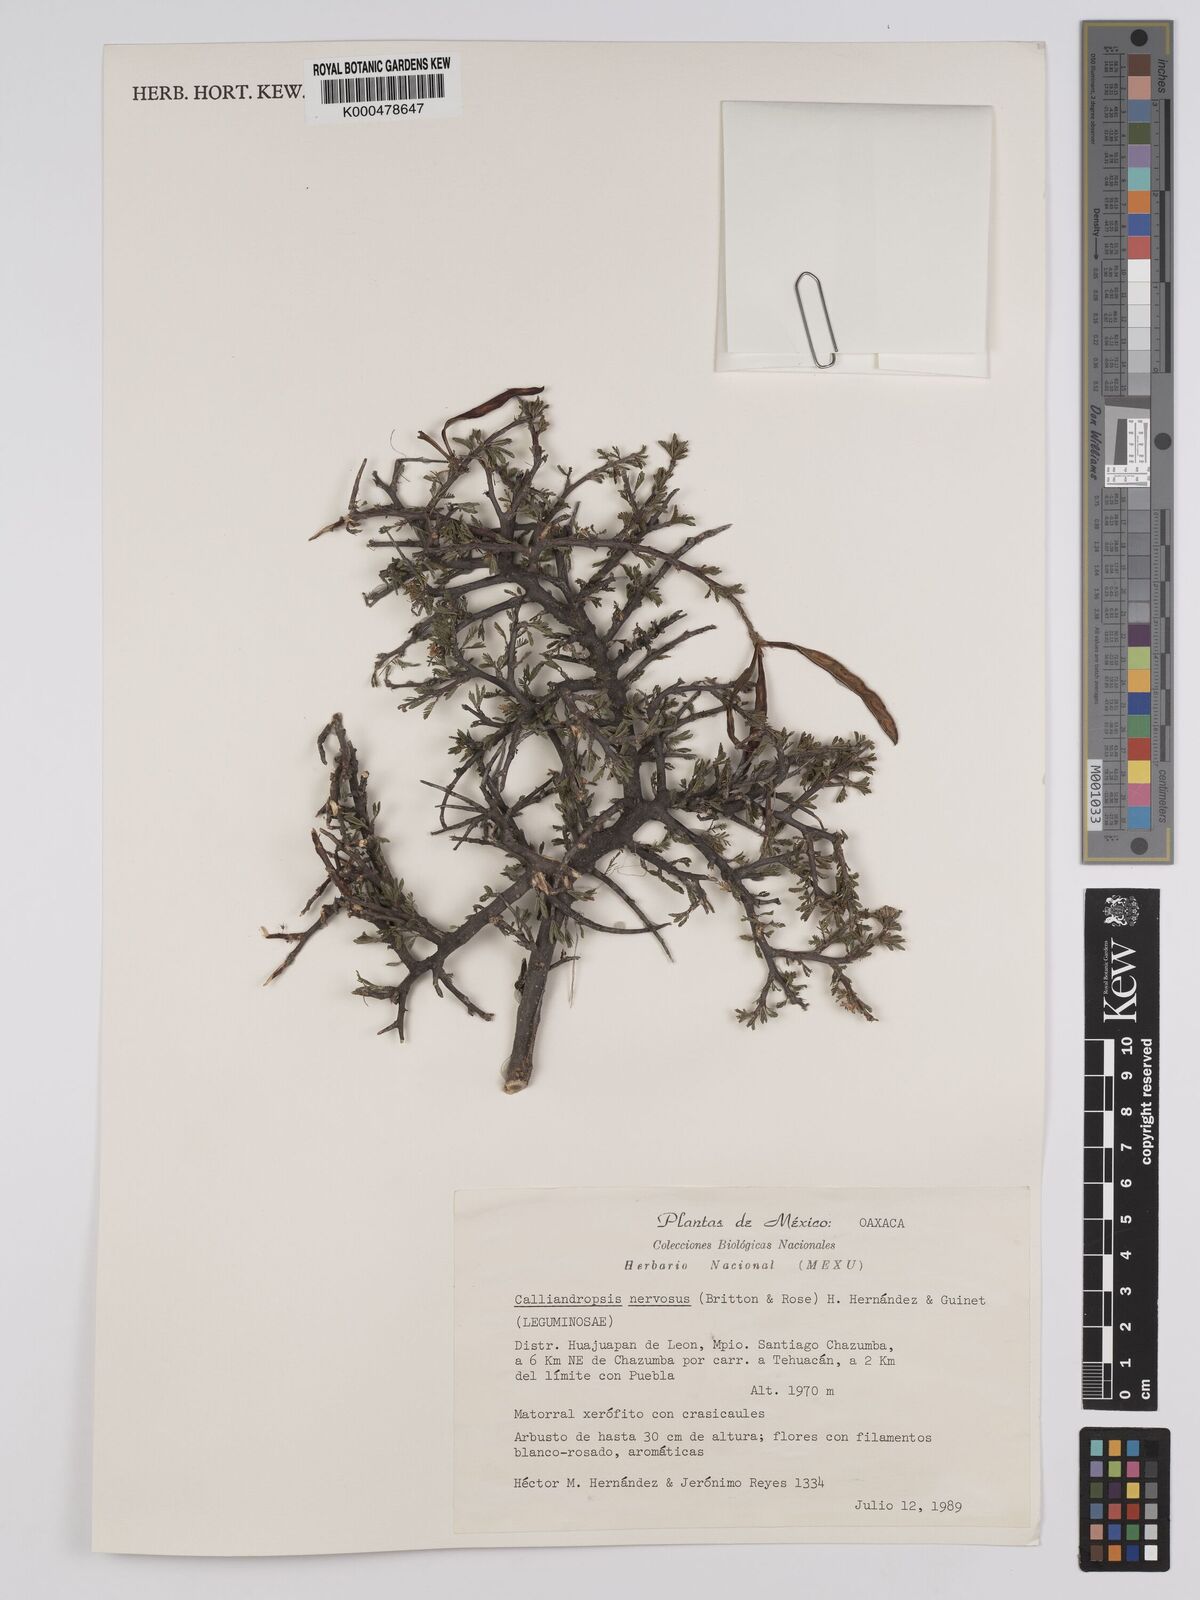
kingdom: Plantae
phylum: Tracheophyta
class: Magnoliopsida
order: Fabales
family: Fabaceae
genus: Calliandropsis
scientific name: Calliandropsis nervosa
